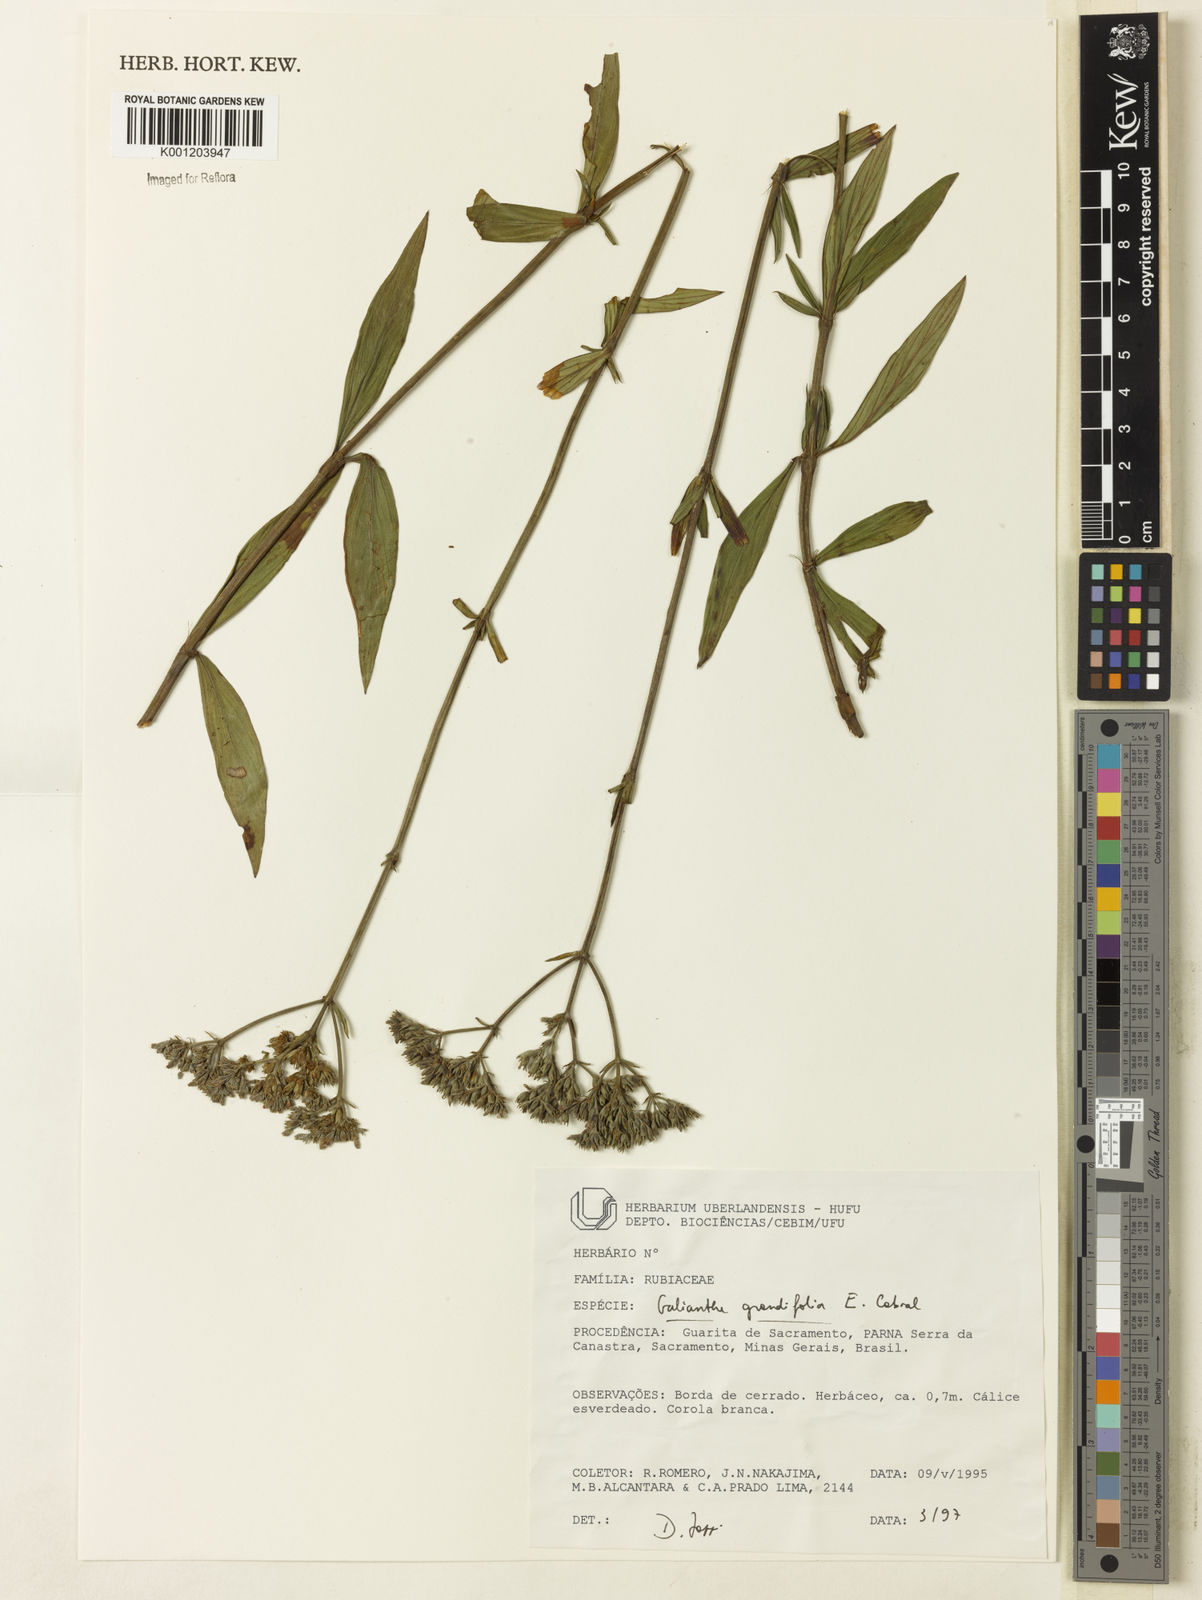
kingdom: Plantae
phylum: Tracheophyta
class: Magnoliopsida
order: Gentianales
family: Rubiaceae
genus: Galianthe
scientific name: Galianthe grandifolia
